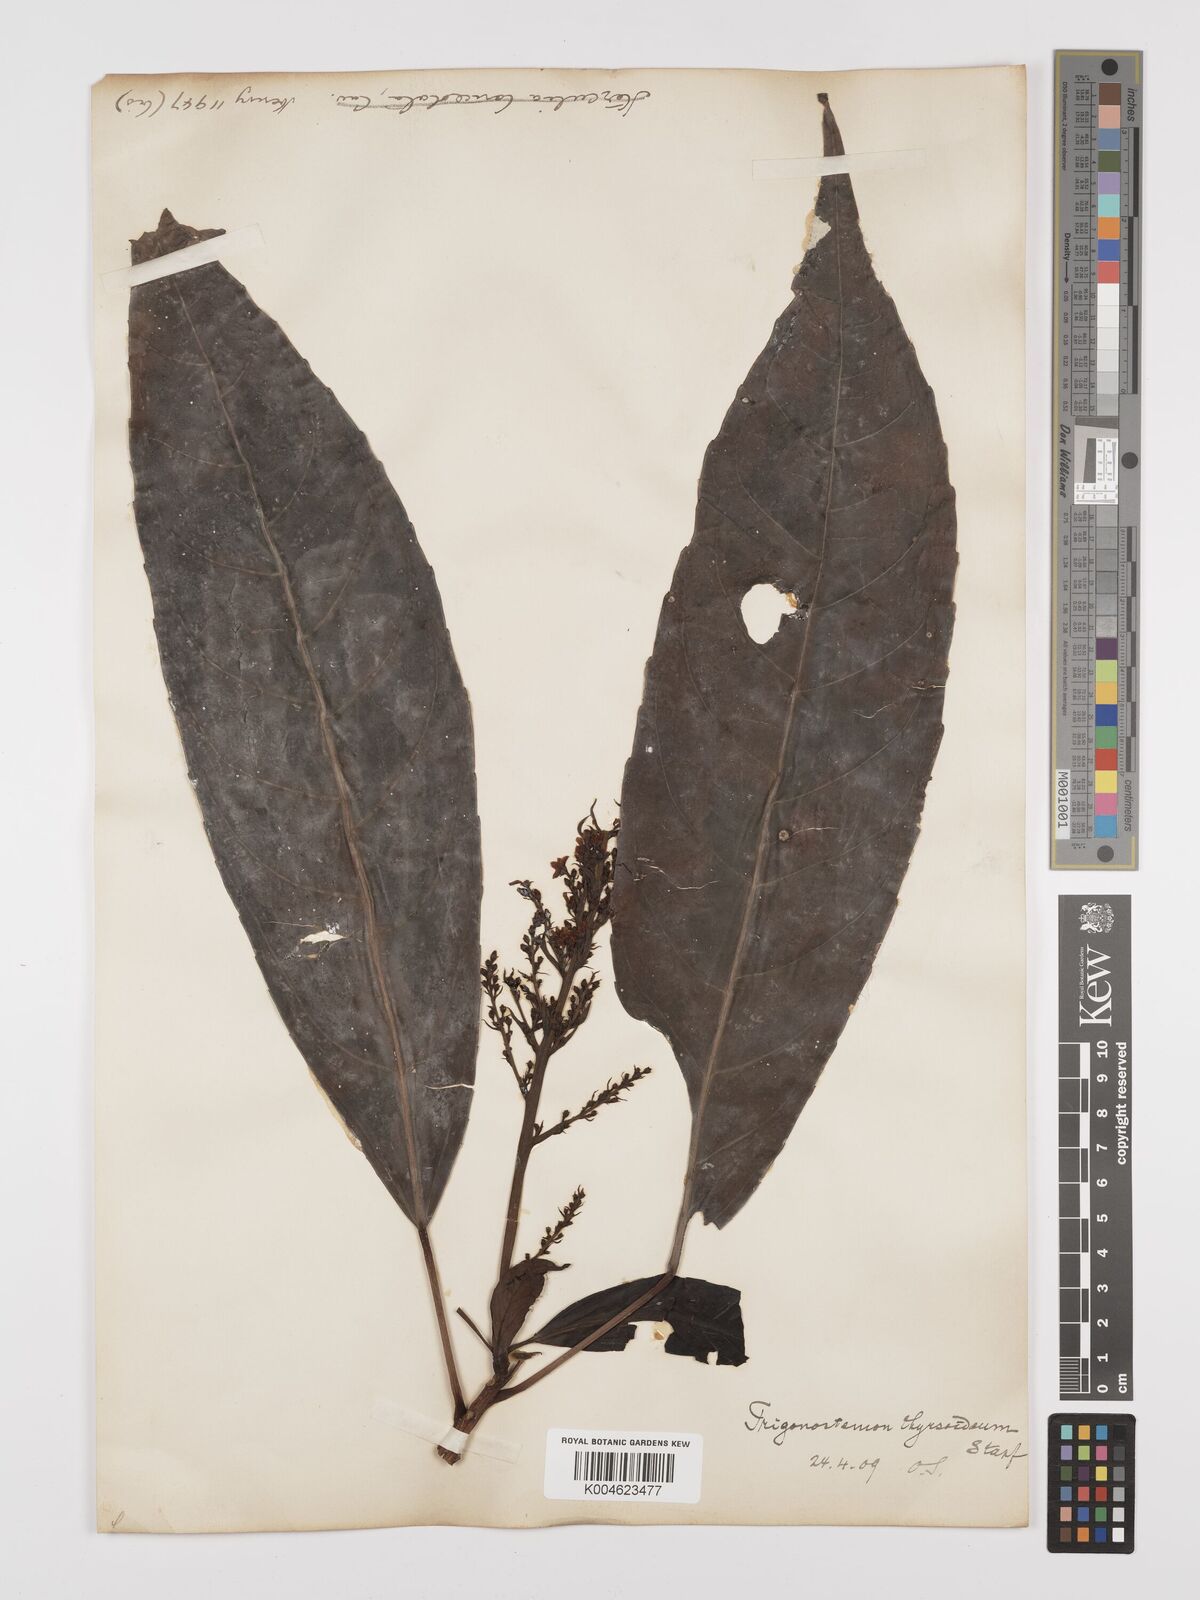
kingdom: Plantae
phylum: Tracheophyta
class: Magnoliopsida
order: Malpighiales
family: Euphorbiaceae
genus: Trigonostemon
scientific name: Trigonostemon xyphophylloides
